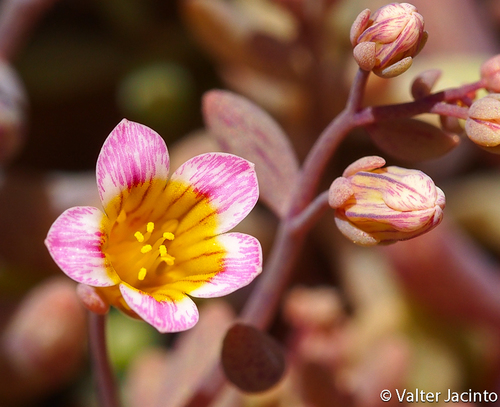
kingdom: Plantae
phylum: Tracheophyta
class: Magnoliopsida
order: Saxifragales
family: Crassulaceae
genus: Sedum
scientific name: Sedum mucizonia
